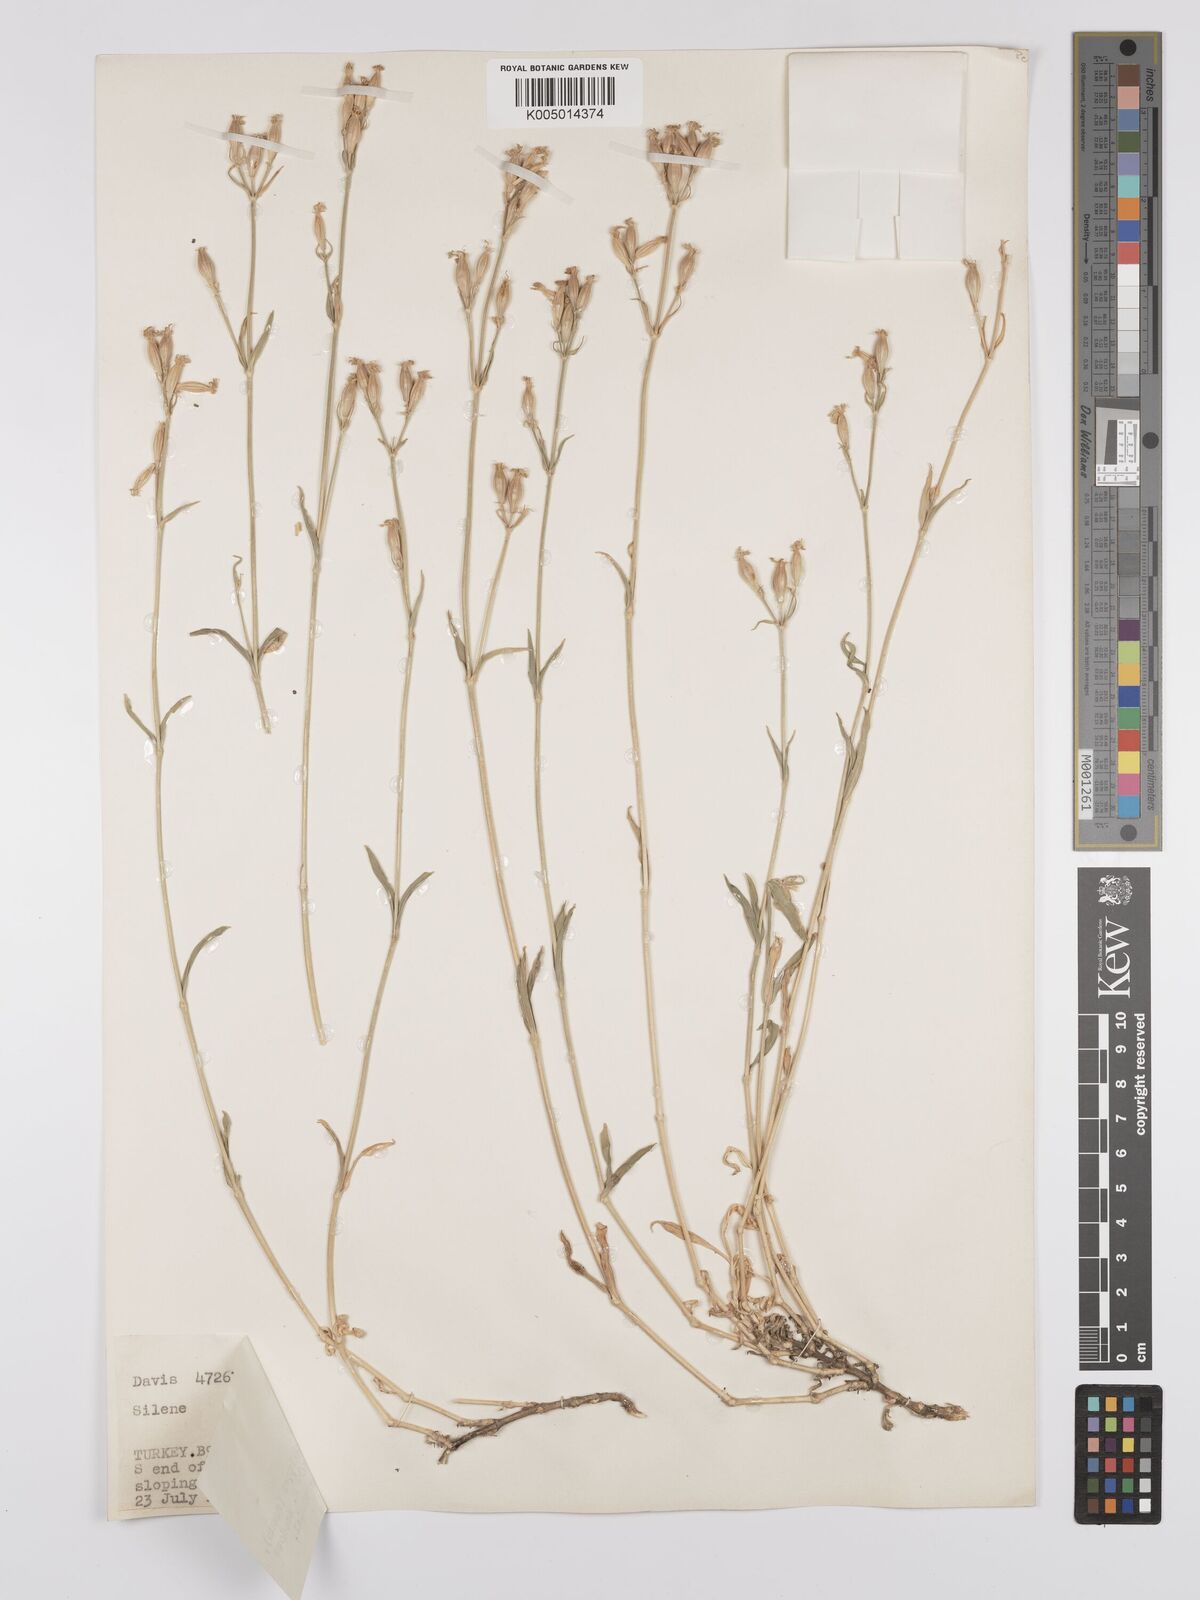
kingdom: Plantae
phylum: Tracheophyta
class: Magnoliopsida
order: Caryophyllales
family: Caryophyllaceae
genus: Silene
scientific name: Silene
